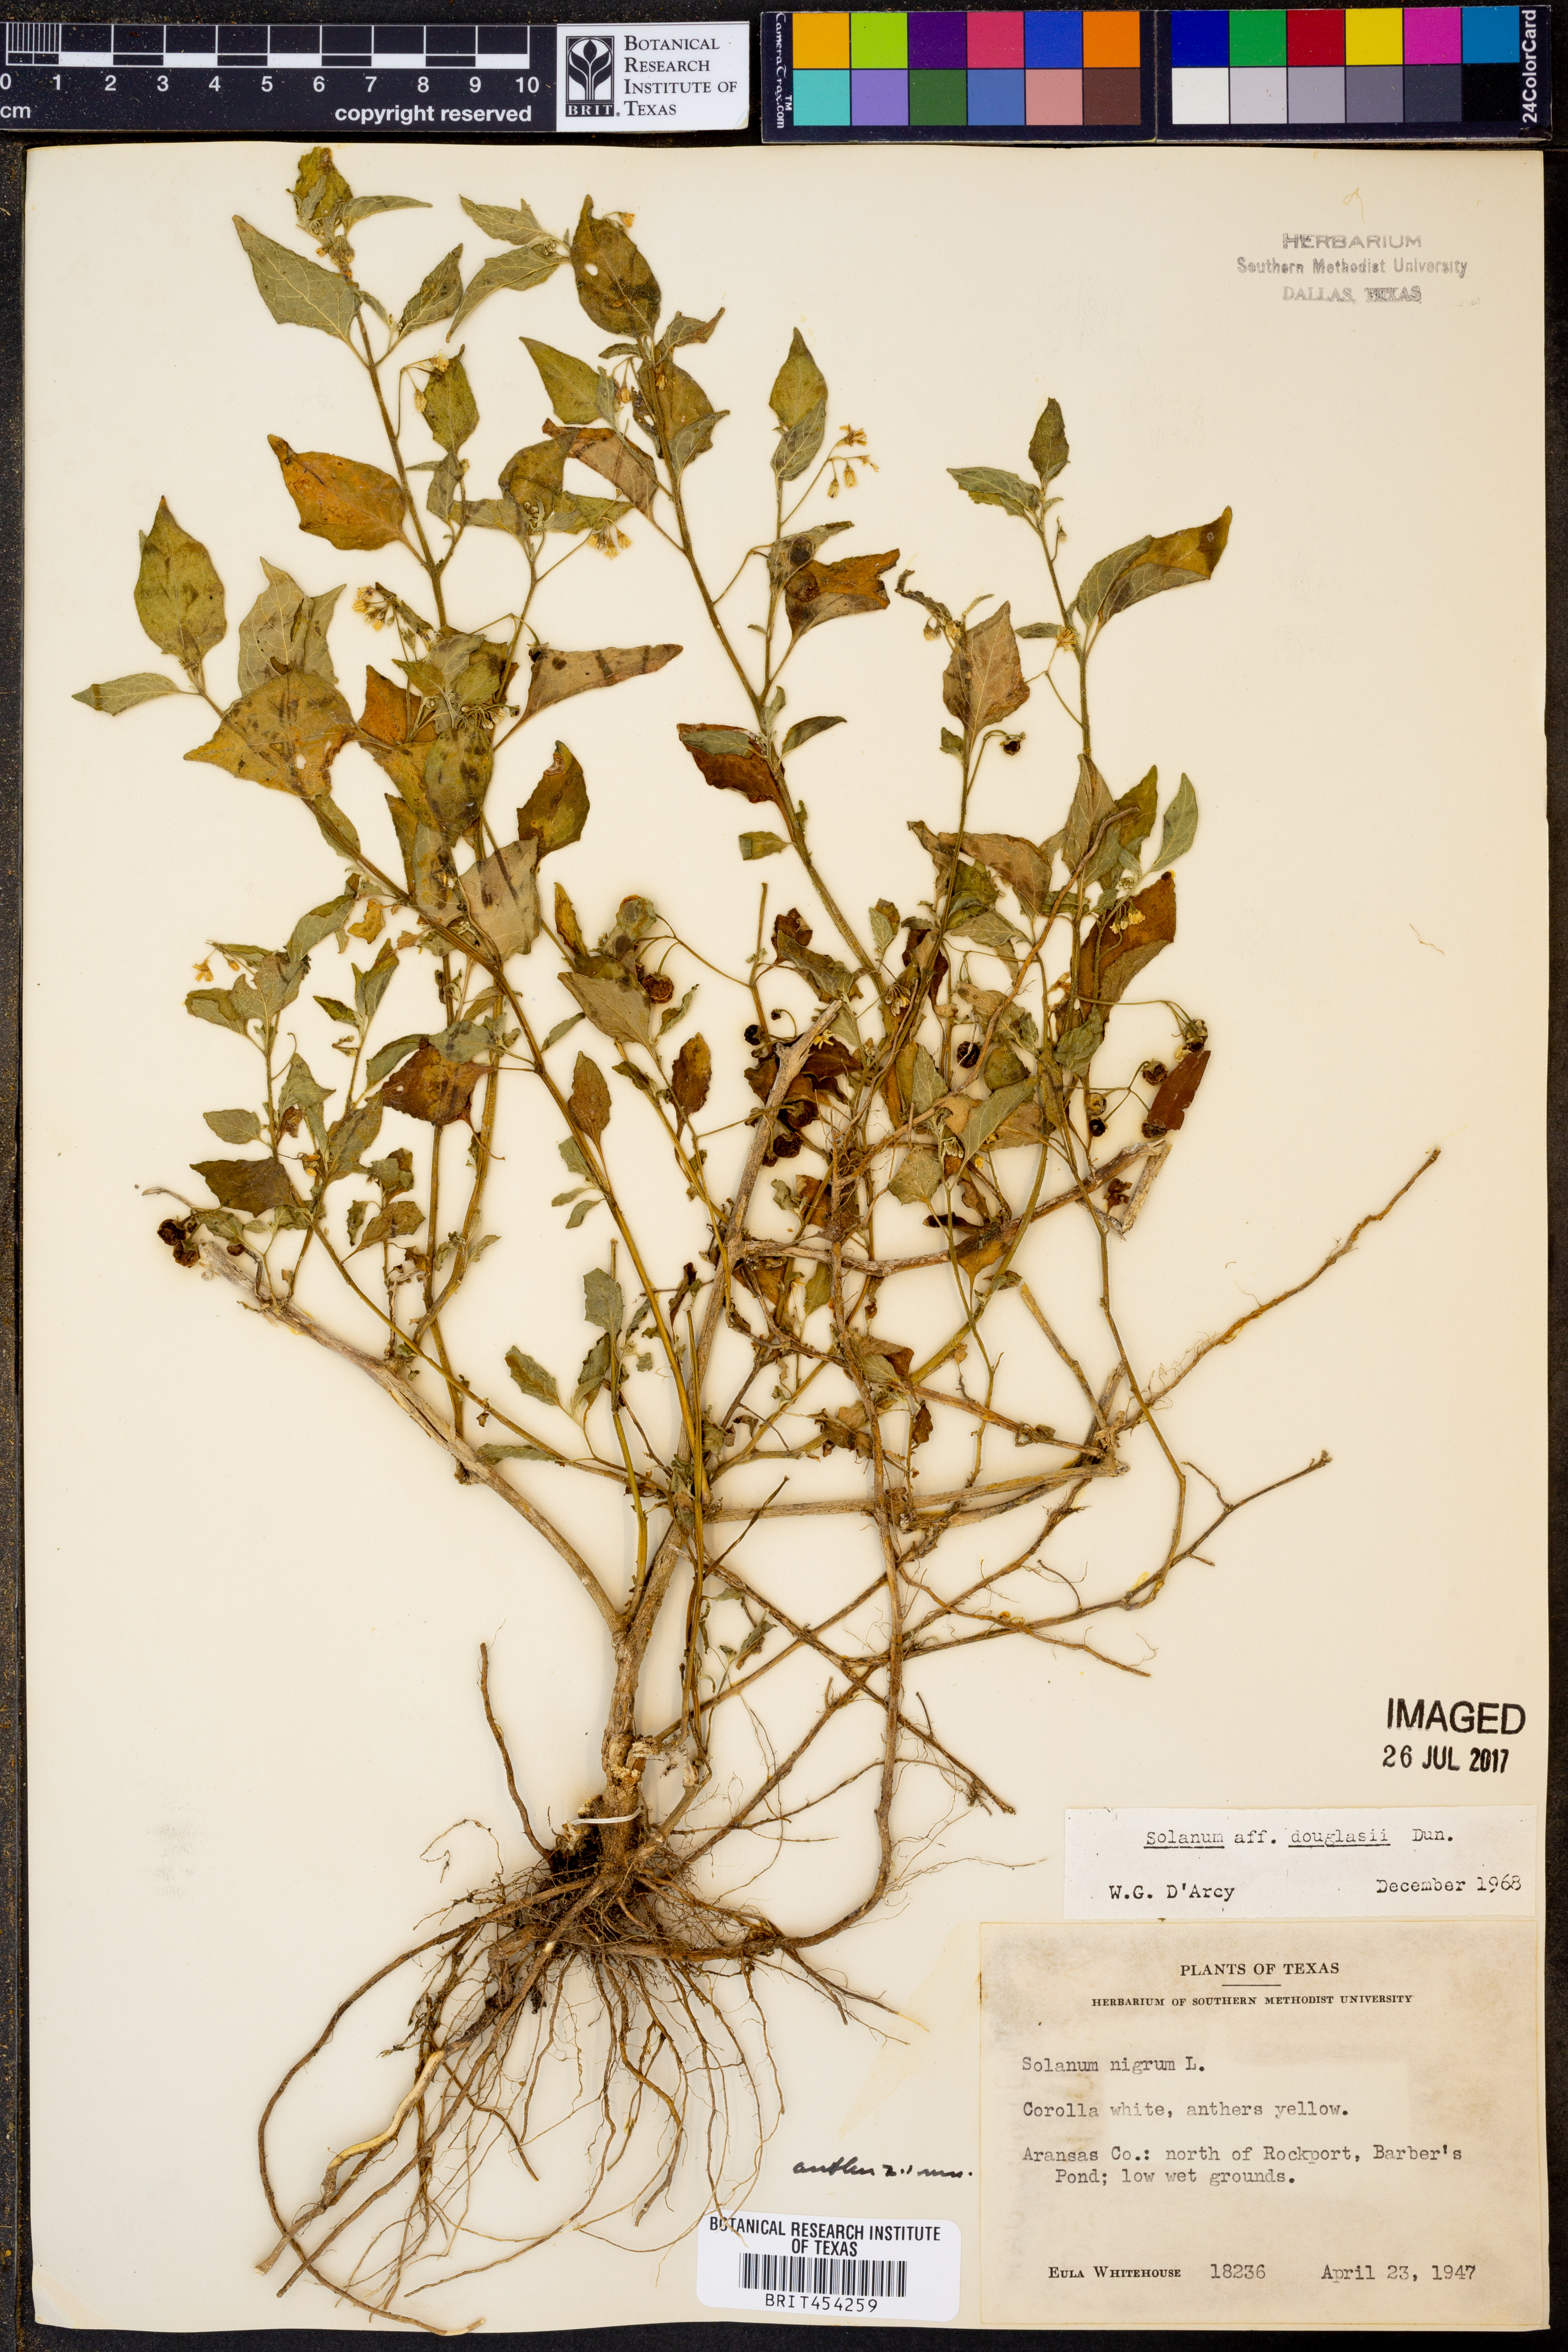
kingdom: Plantae
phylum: Tracheophyta
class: Magnoliopsida
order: Solanales
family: Solanaceae
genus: Solanum
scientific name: Solanum douglasii
